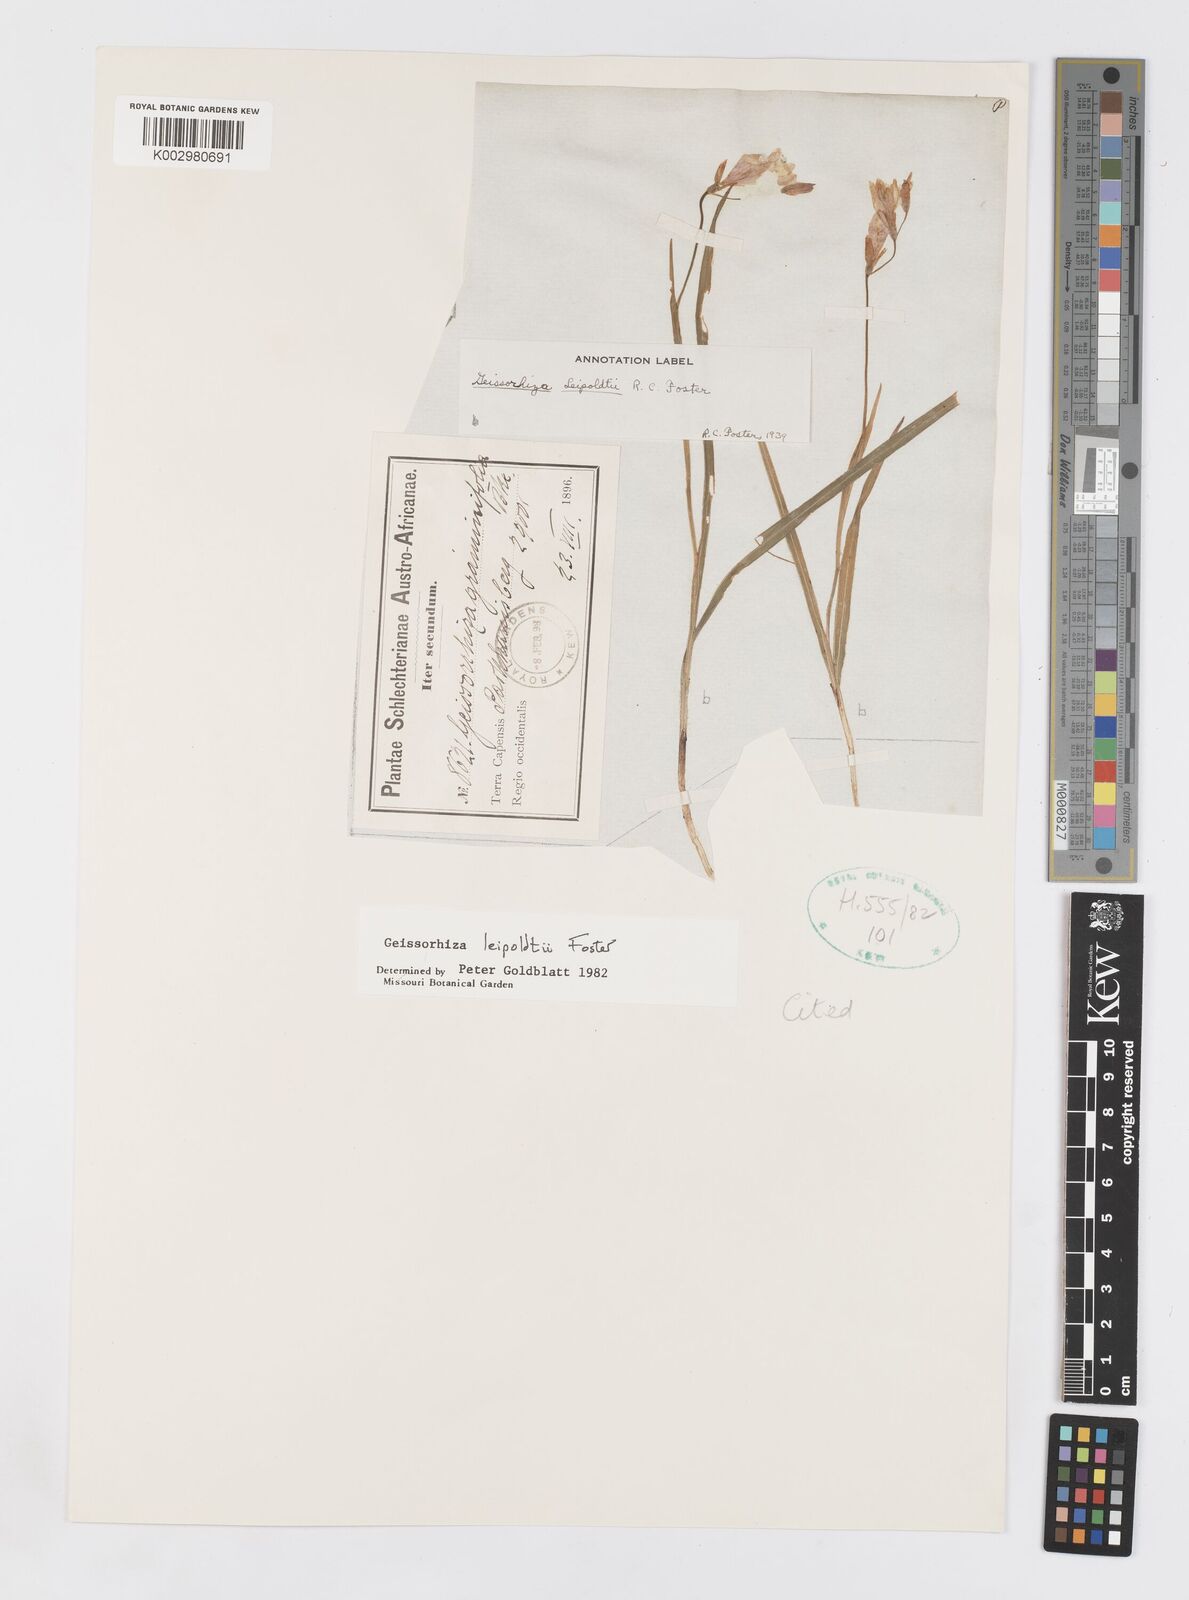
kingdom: Plantae
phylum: Tracheophyta
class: Liliopsida
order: Asparagales
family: Iridaceae
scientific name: Iridaceae
